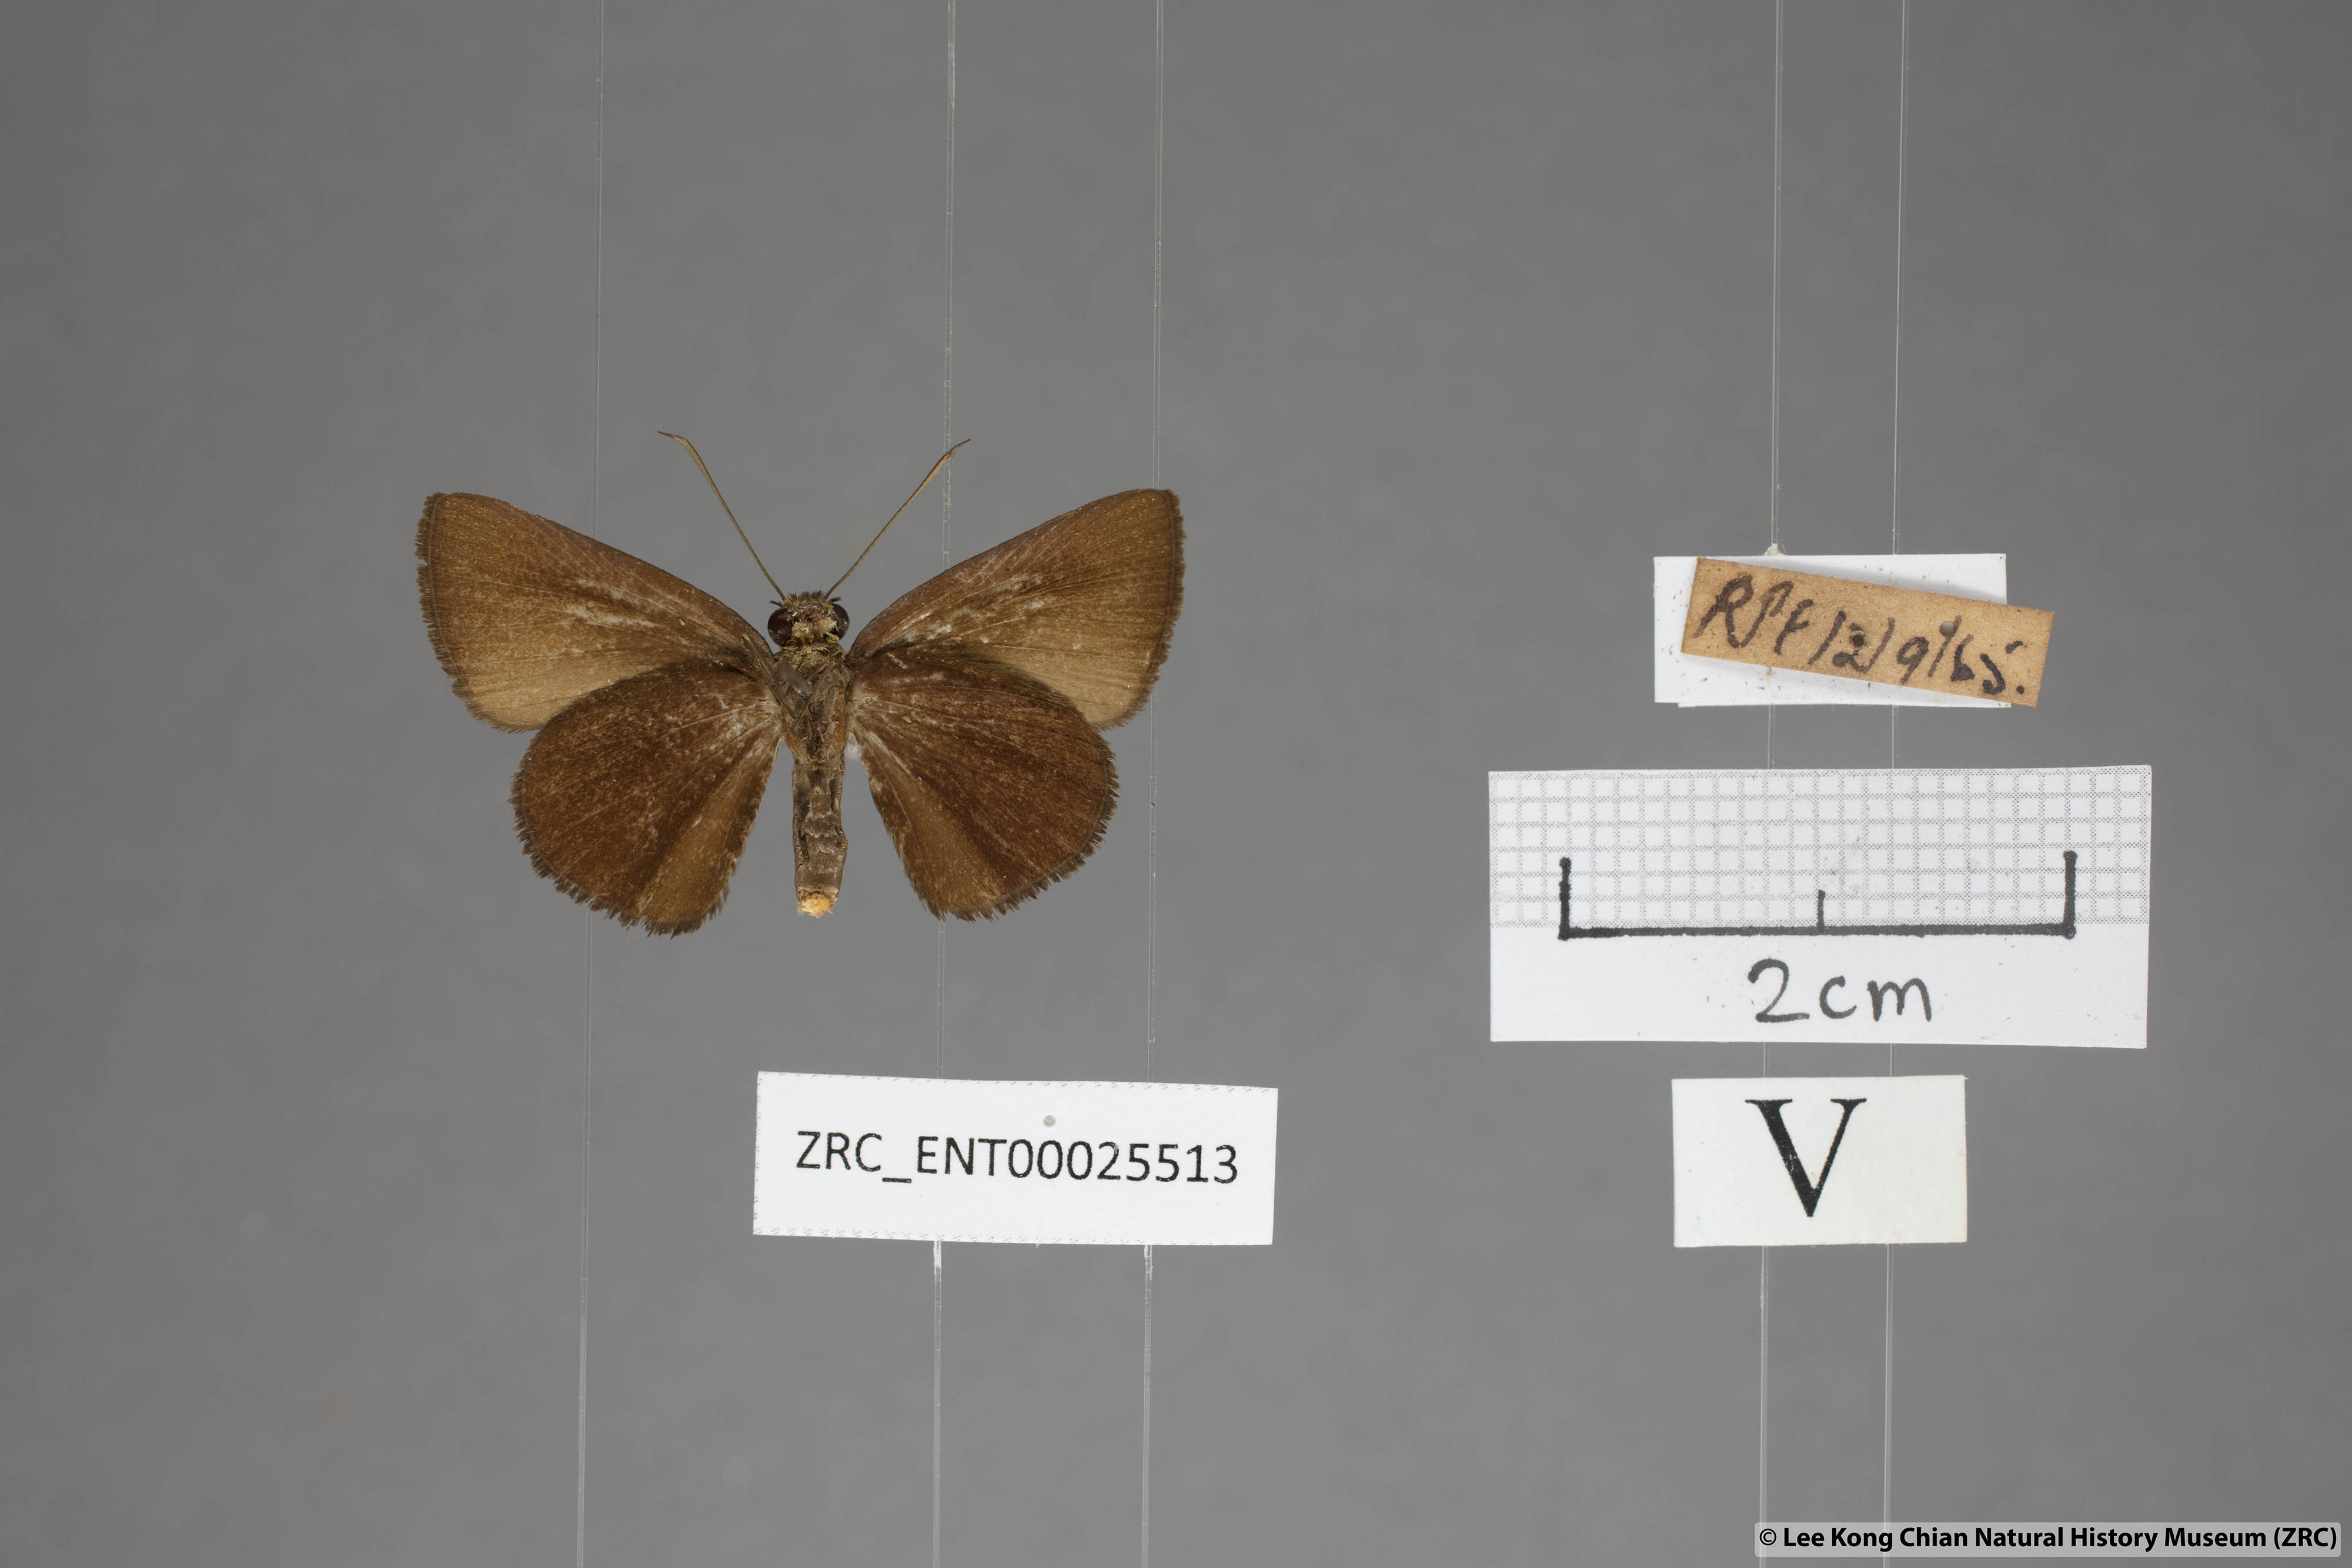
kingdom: Animalia
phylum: Arthropoda
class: Insecta
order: Lepidoptera
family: Hesperiidae
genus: Psolos
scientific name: Psolos fuligo
